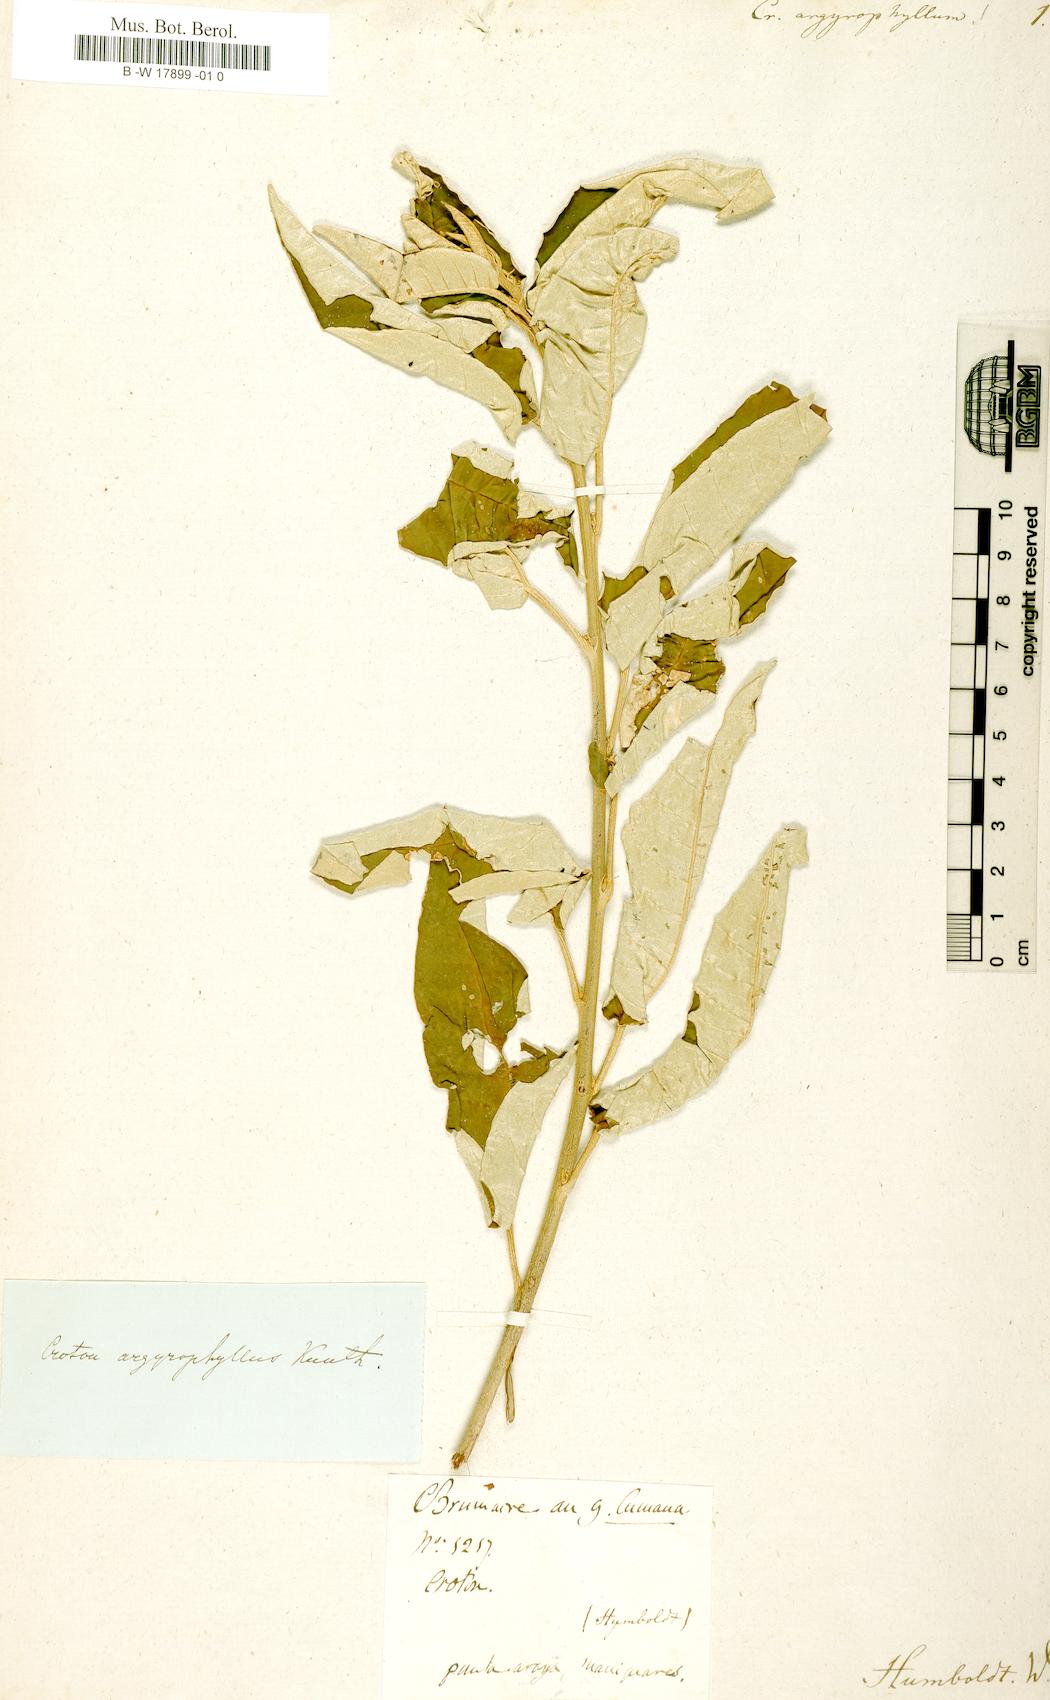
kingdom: Plantae
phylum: Tracheophyta
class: Magnoliopsida
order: Malpighiales
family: Euphorbiaceae
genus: Croton
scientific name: Croton argyrophyllus
